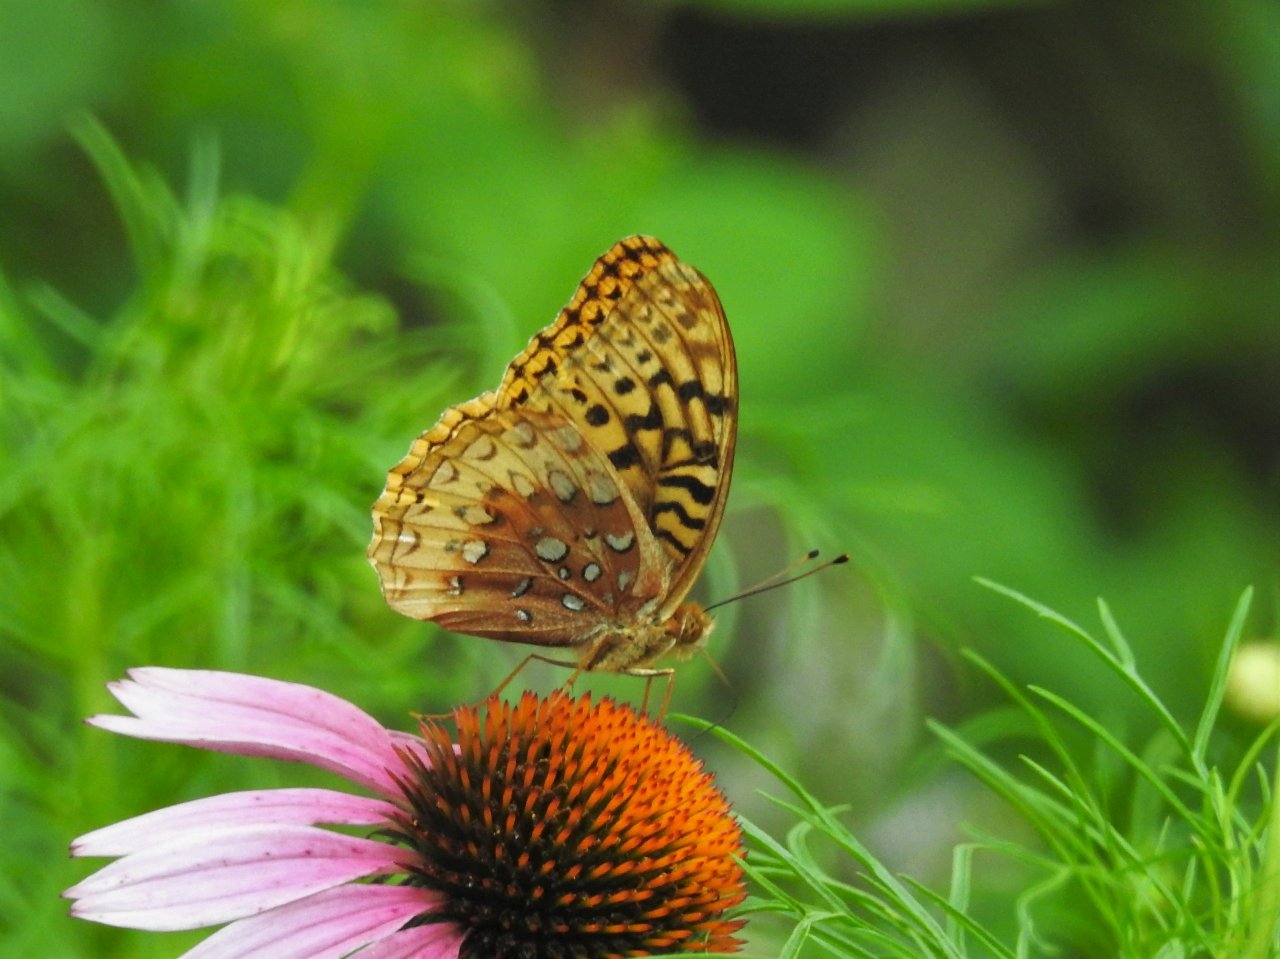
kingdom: Animalia
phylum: Arthropoda
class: Insecta
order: Lepidoptera
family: Nymphalidae
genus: Speyeria
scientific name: Speyeria cybele
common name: Great Spangled Fritillary
